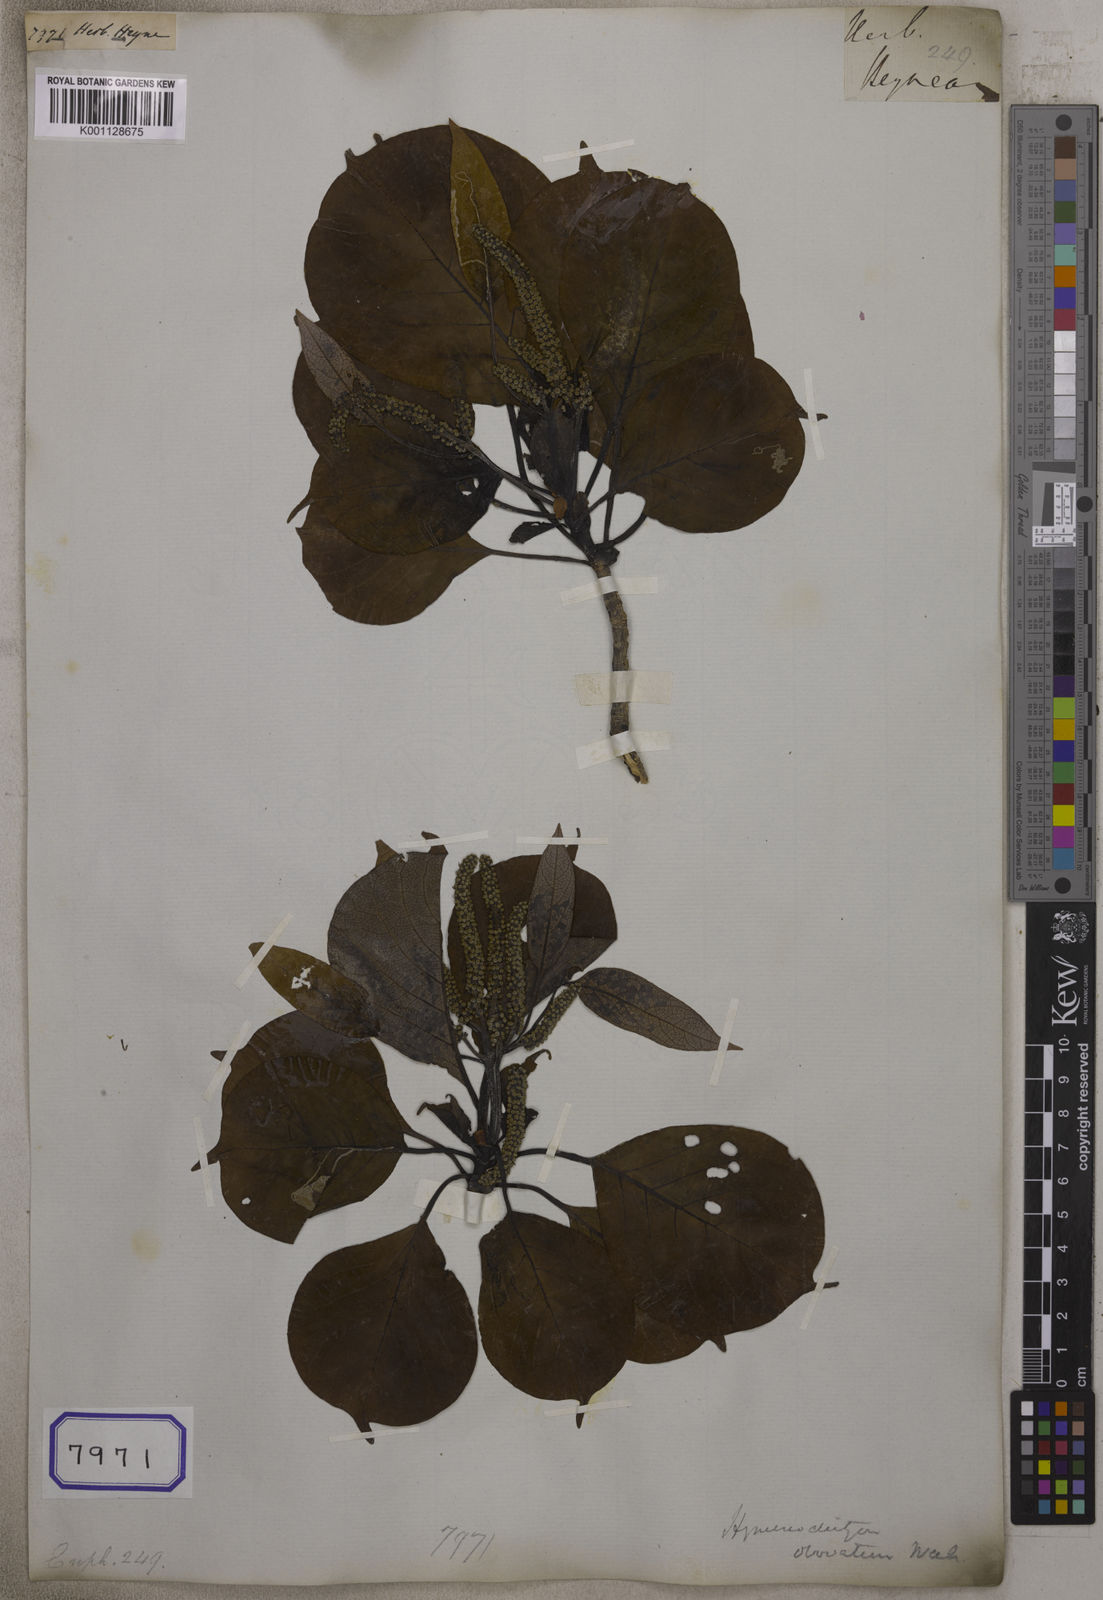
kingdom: Plantae
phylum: Tracheophyta
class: Magnoliopsida
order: Malpighiales
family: Euphorbiaceae
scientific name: Euphorbiaceae
